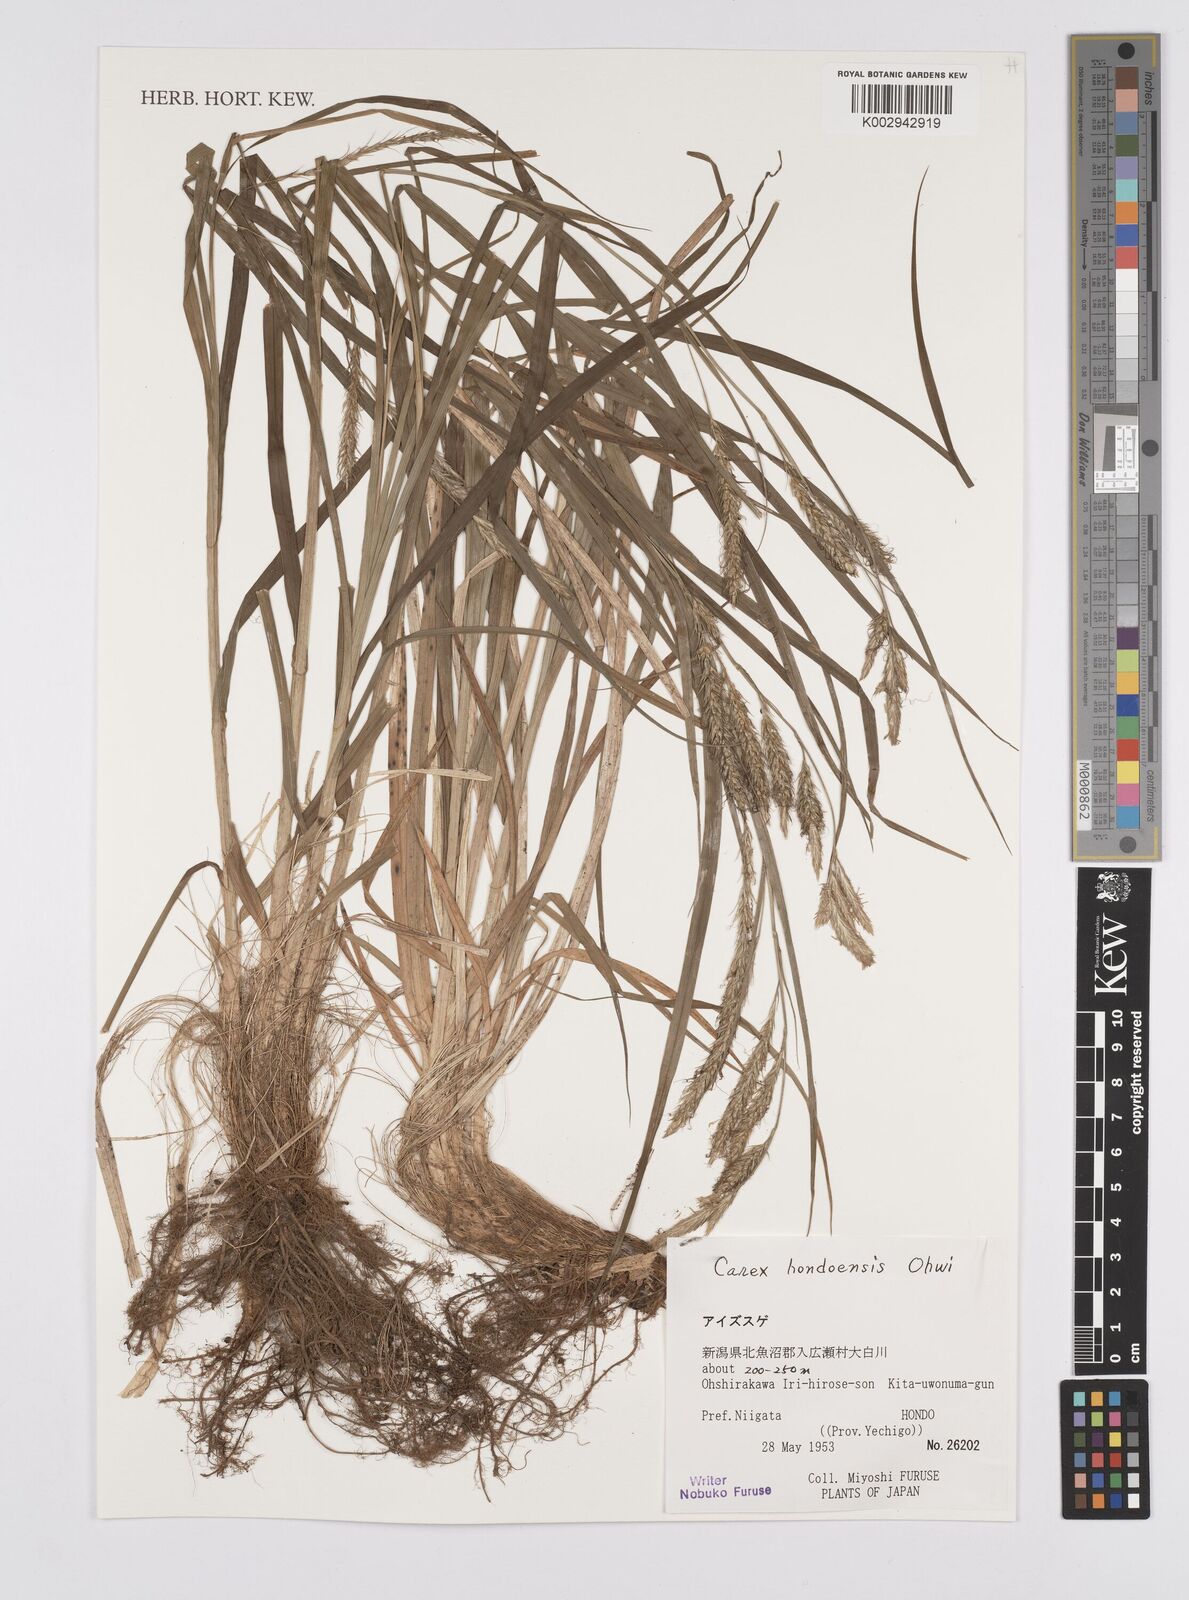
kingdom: Plantae
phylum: Tracheophyta
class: Liliopsida
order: Poales
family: Cyperaceae
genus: Carex
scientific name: Carex hondoensis
